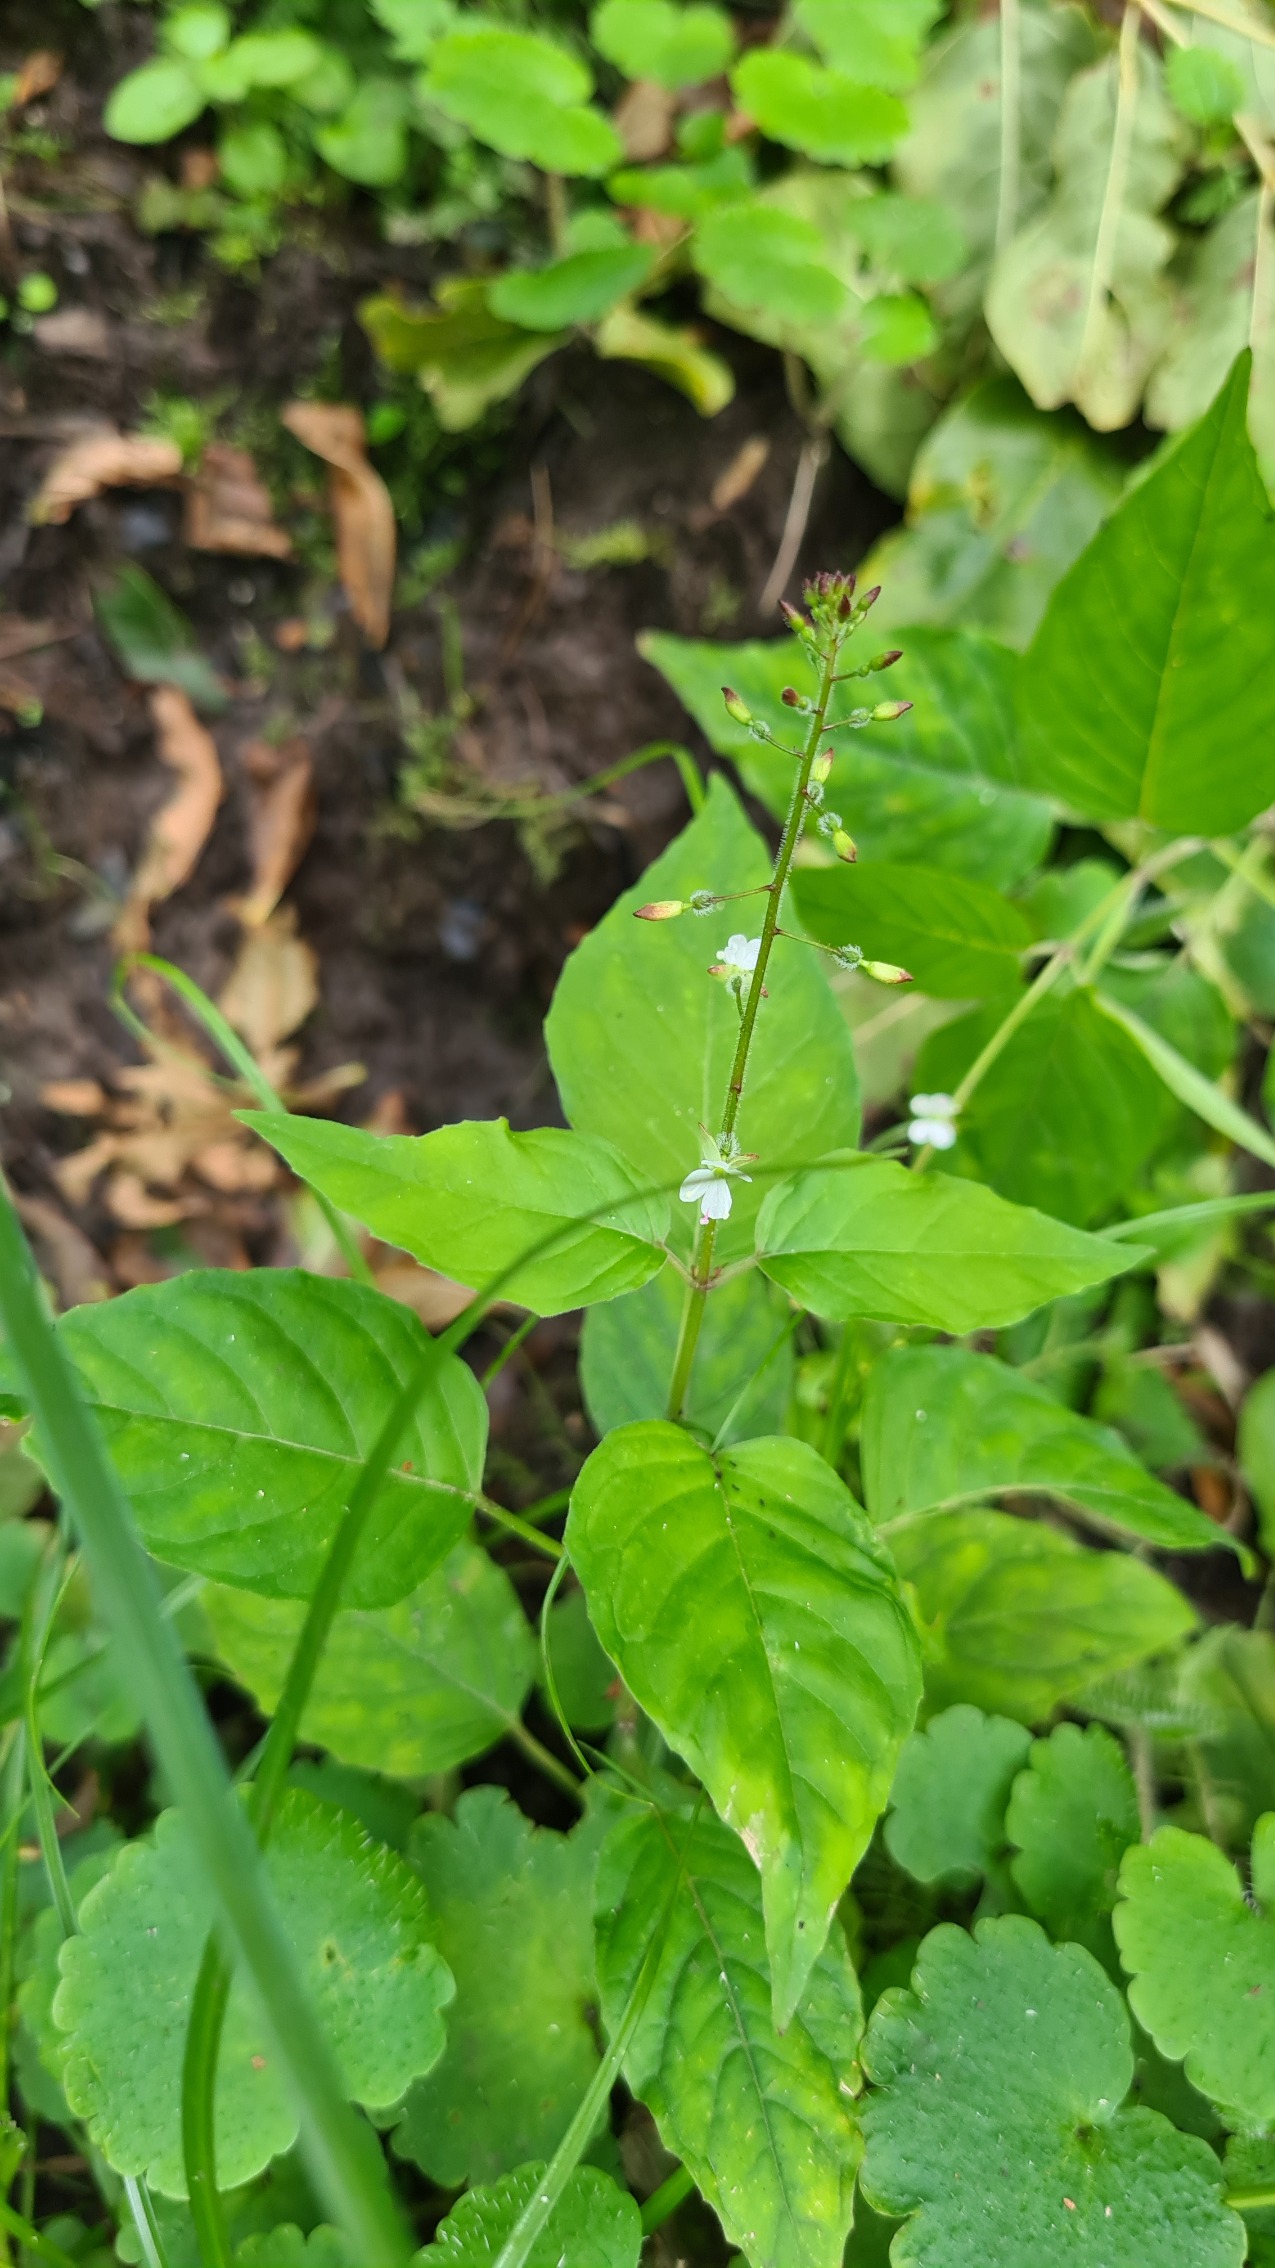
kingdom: Plantae
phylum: Tracheophyta
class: Magnoliopsida
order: Myrtales
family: Onagraceae
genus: Circaea
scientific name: Circaea lutetiana
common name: Dunet steffensurt
